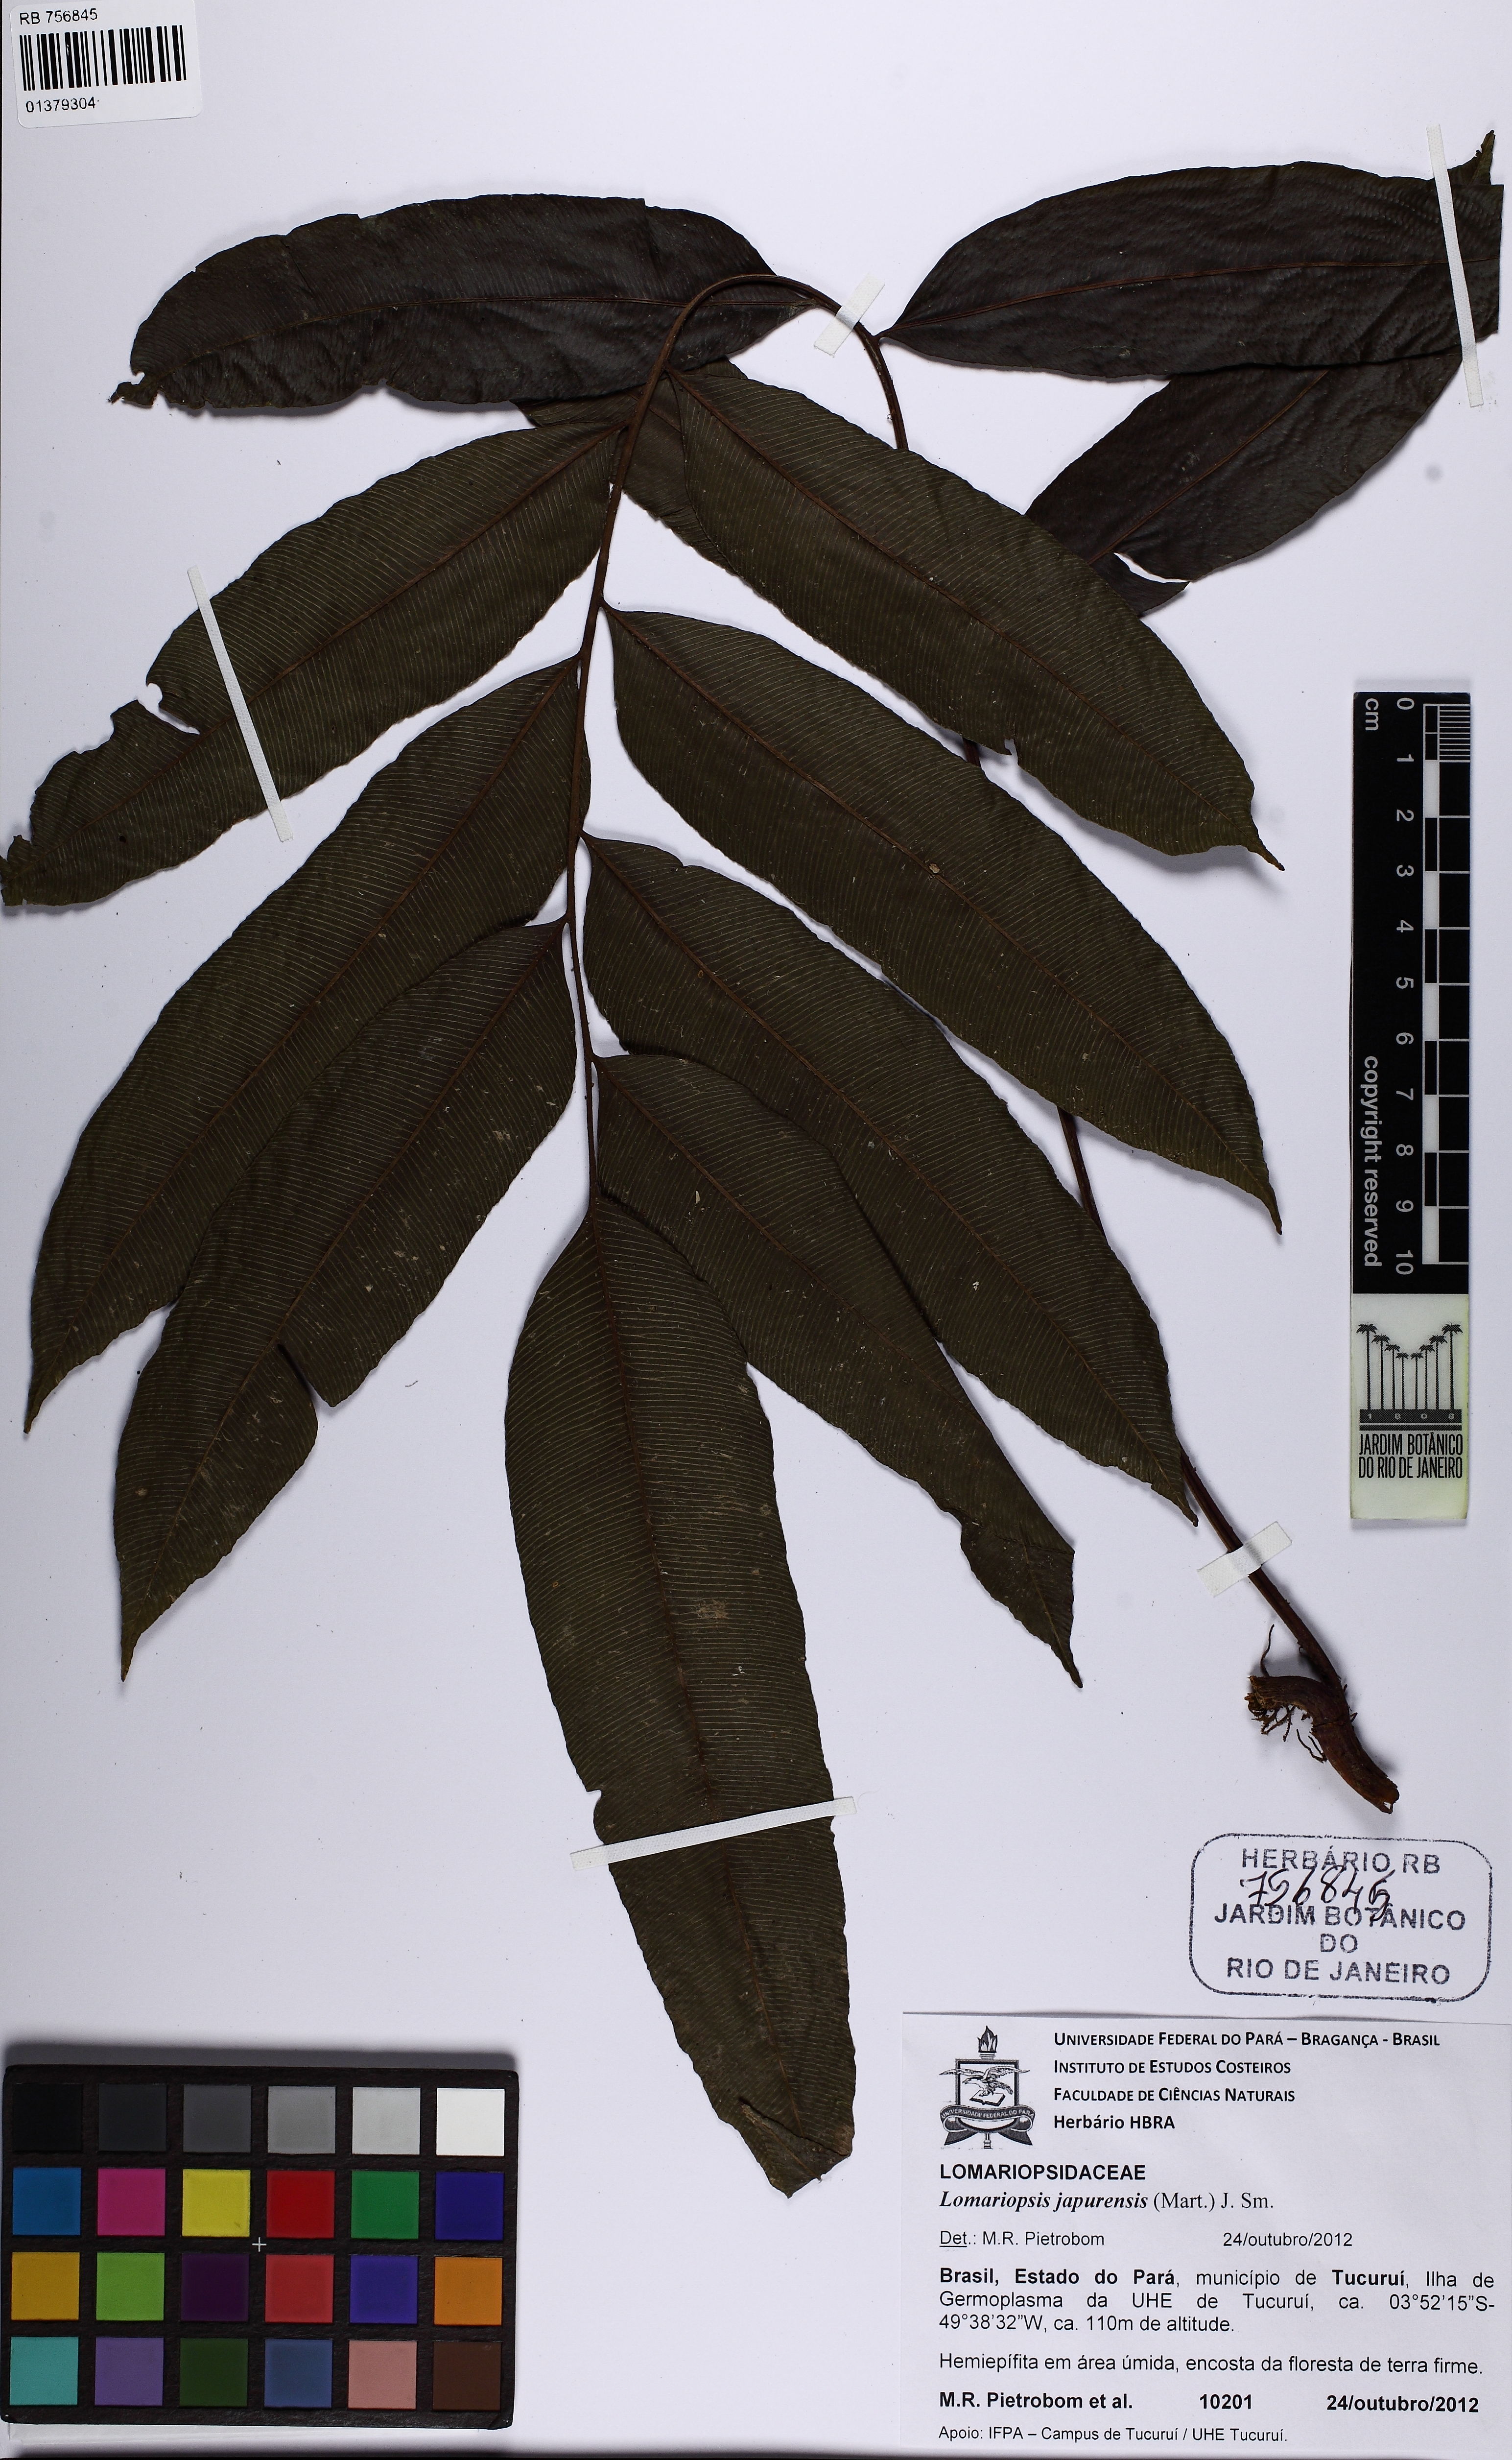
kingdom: Plantae
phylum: Tracheophyta
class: Polypodiopsida
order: Polypodiales
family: Lomariopsidaceae
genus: Lomariopsis
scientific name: Lomariopsis japurensis
